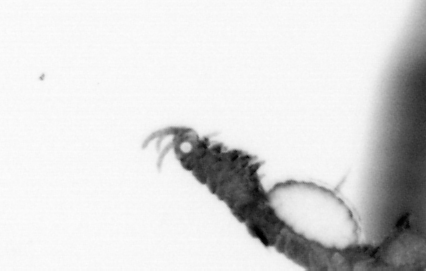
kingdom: Animalia
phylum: Annelida
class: Polychaeta
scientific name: Polychaeta
